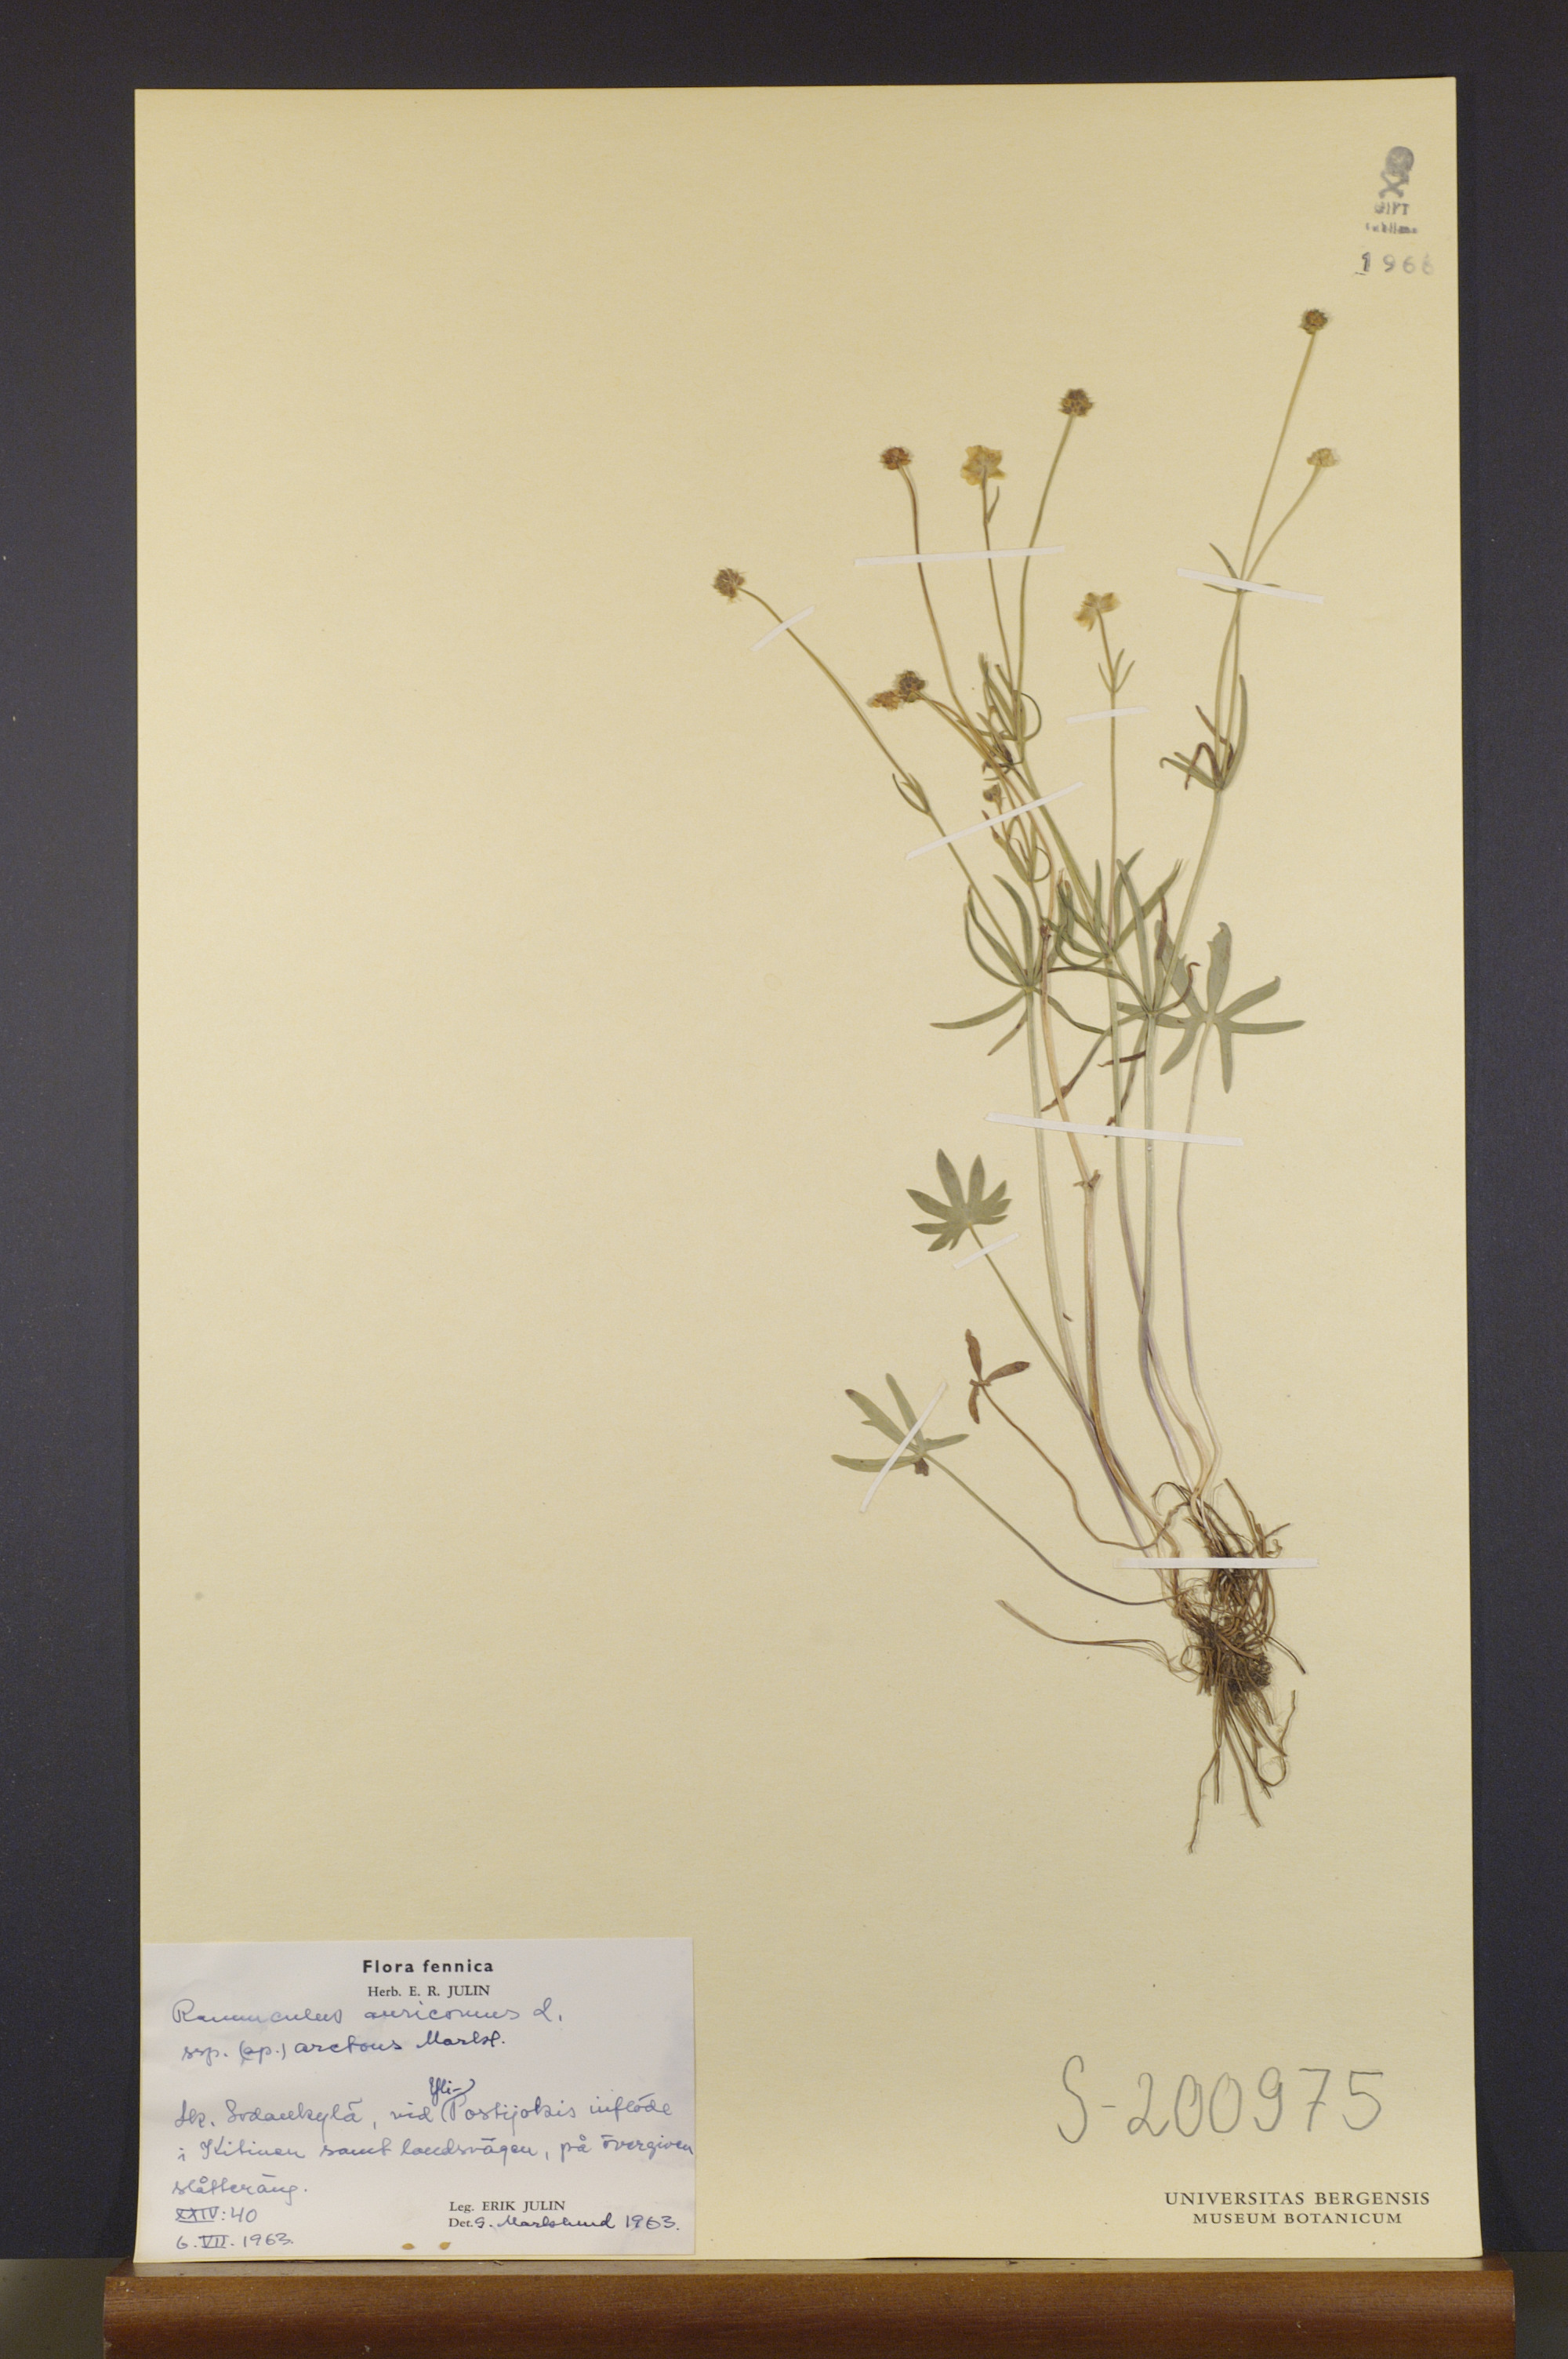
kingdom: Plantae
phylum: Tracheophyta
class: Magnoliopsida
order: Ranunculales
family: Ranunculaceae
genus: Ranunculus
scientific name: Ranunculus auricomus
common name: Goldilocks buttercup
